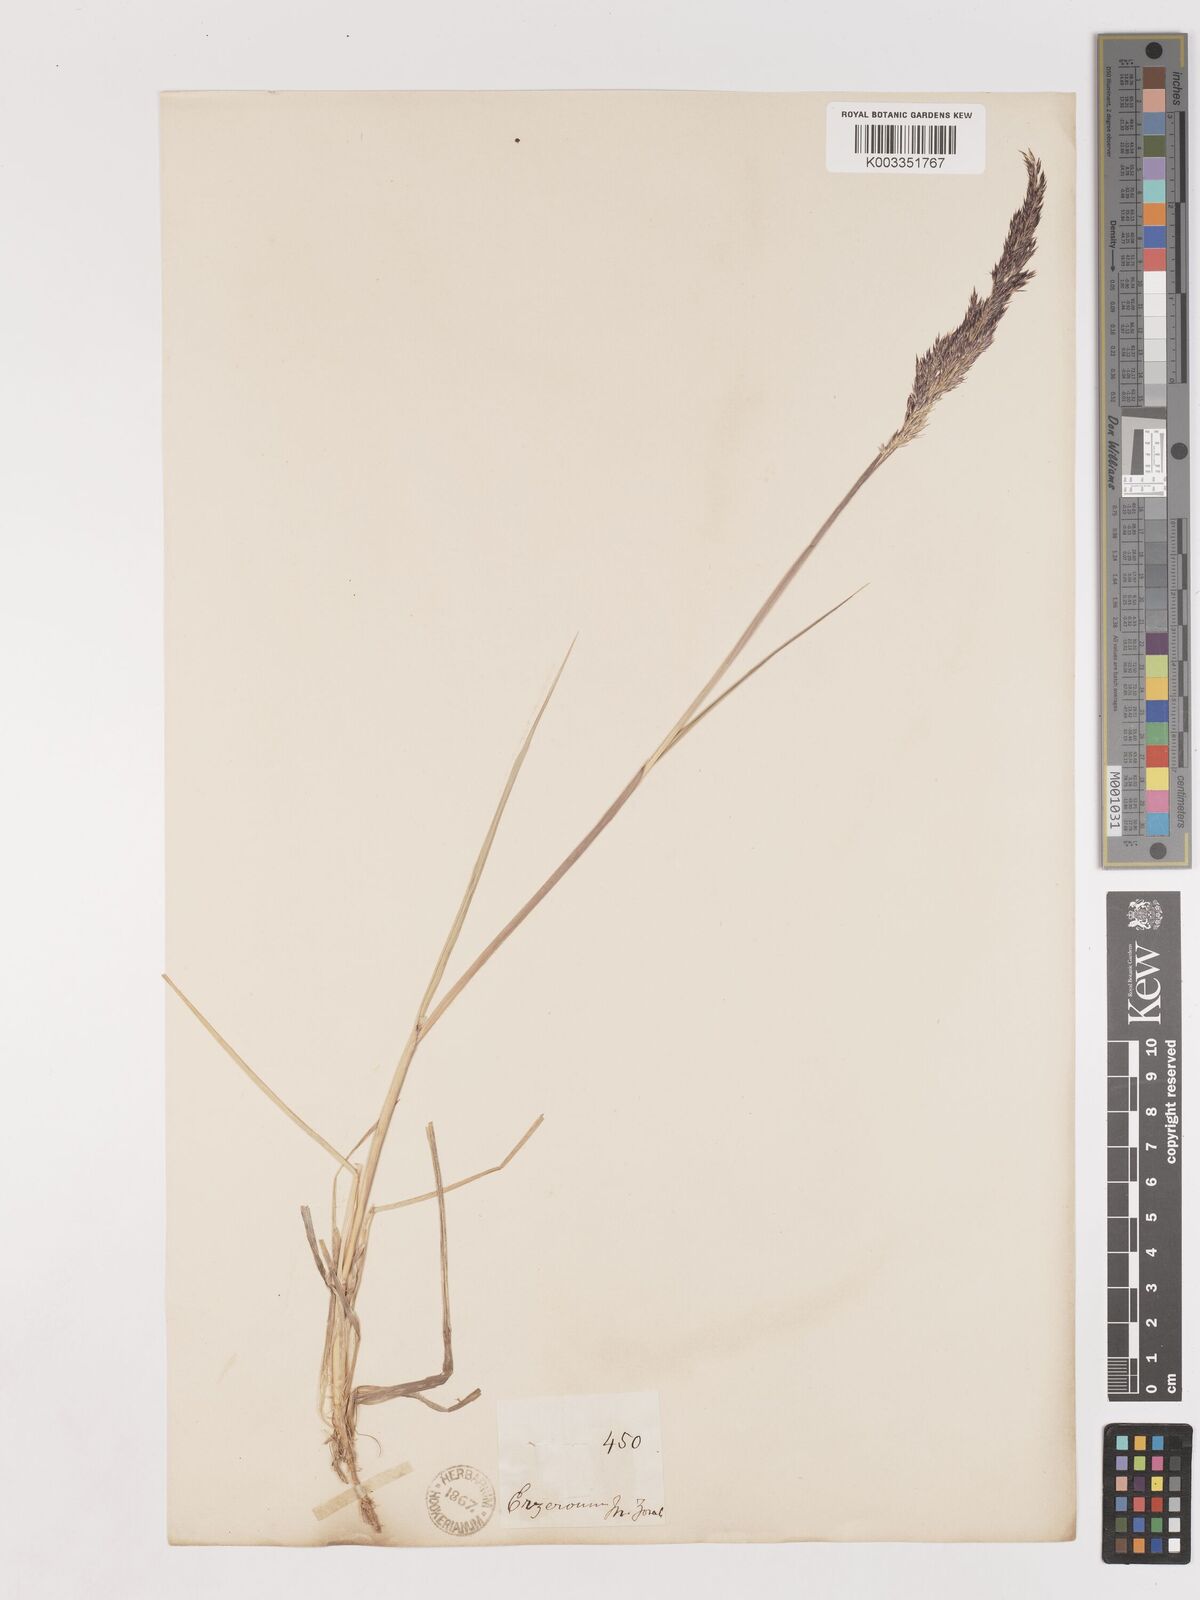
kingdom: Plantae
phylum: Tracheophyta
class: Liliopsida
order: Poales
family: Poaceae
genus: Calamagrostis
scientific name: Calamagrostis pseudophragmites
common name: Coastal small-reed
